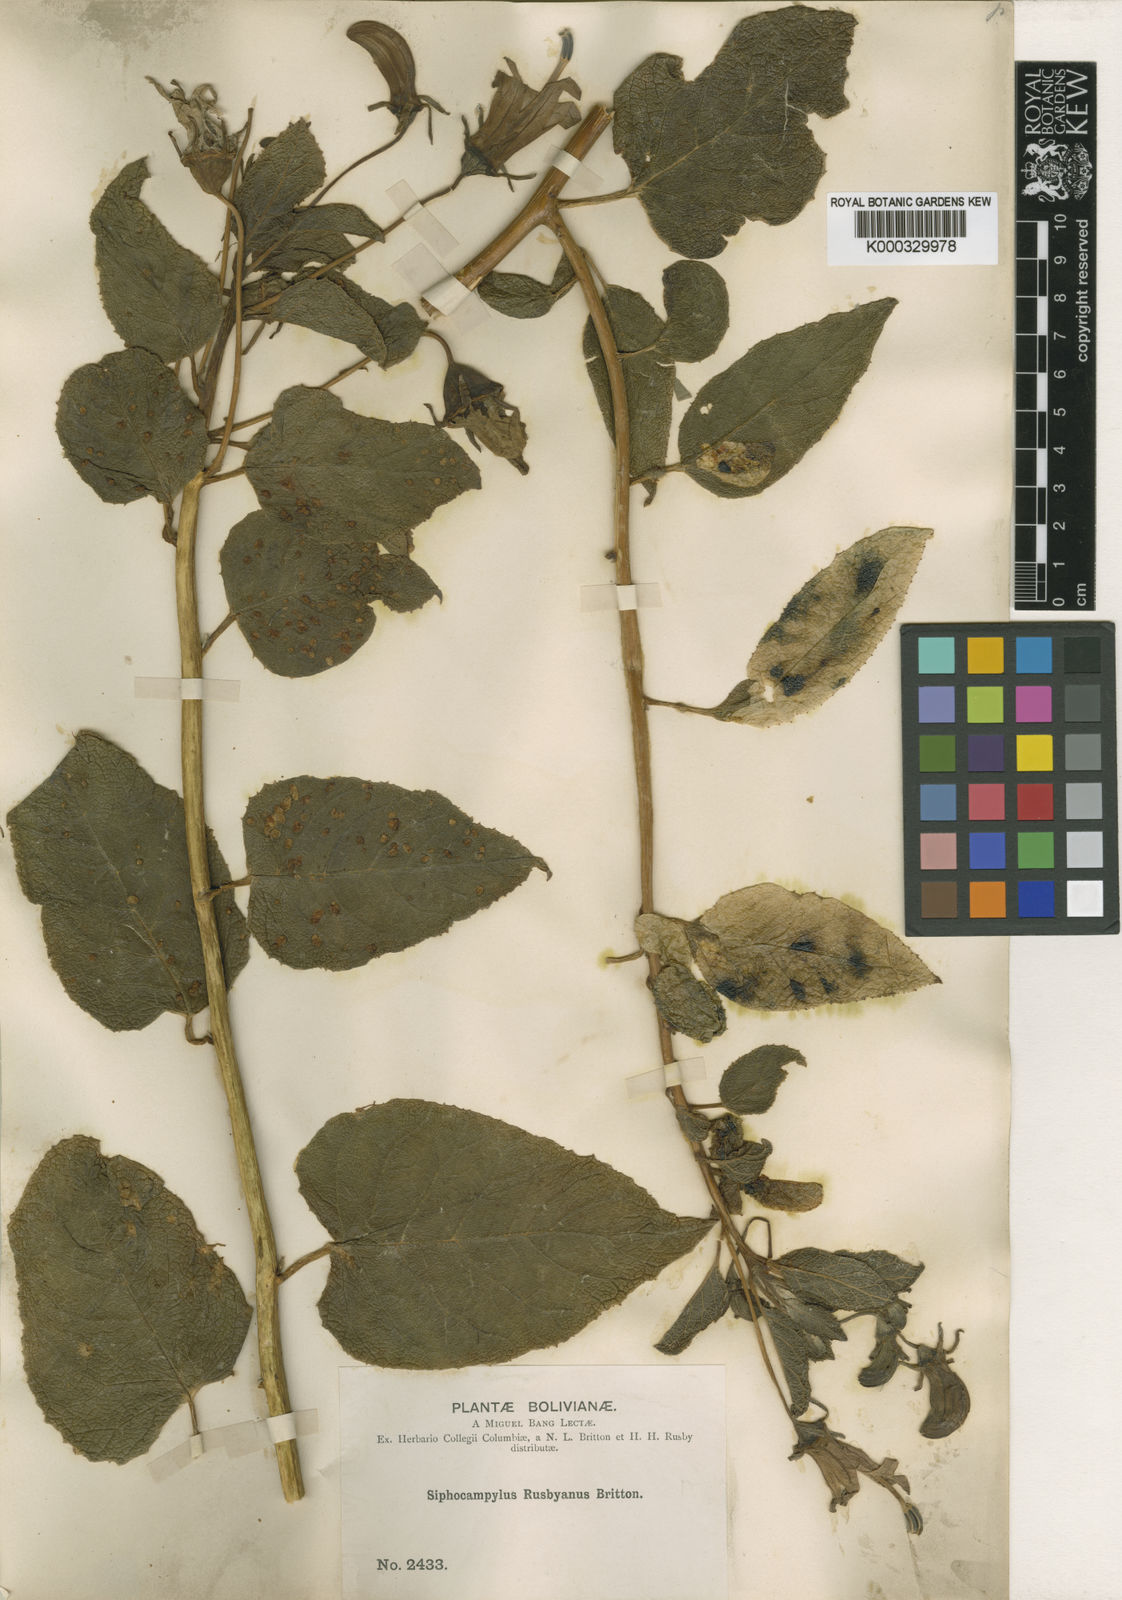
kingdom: Plantae
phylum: Tracheophyta
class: Magnoliopsida
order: Asterales
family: Campanulaceae
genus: Siphocampylus
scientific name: Siphocampylus rusbyanus
